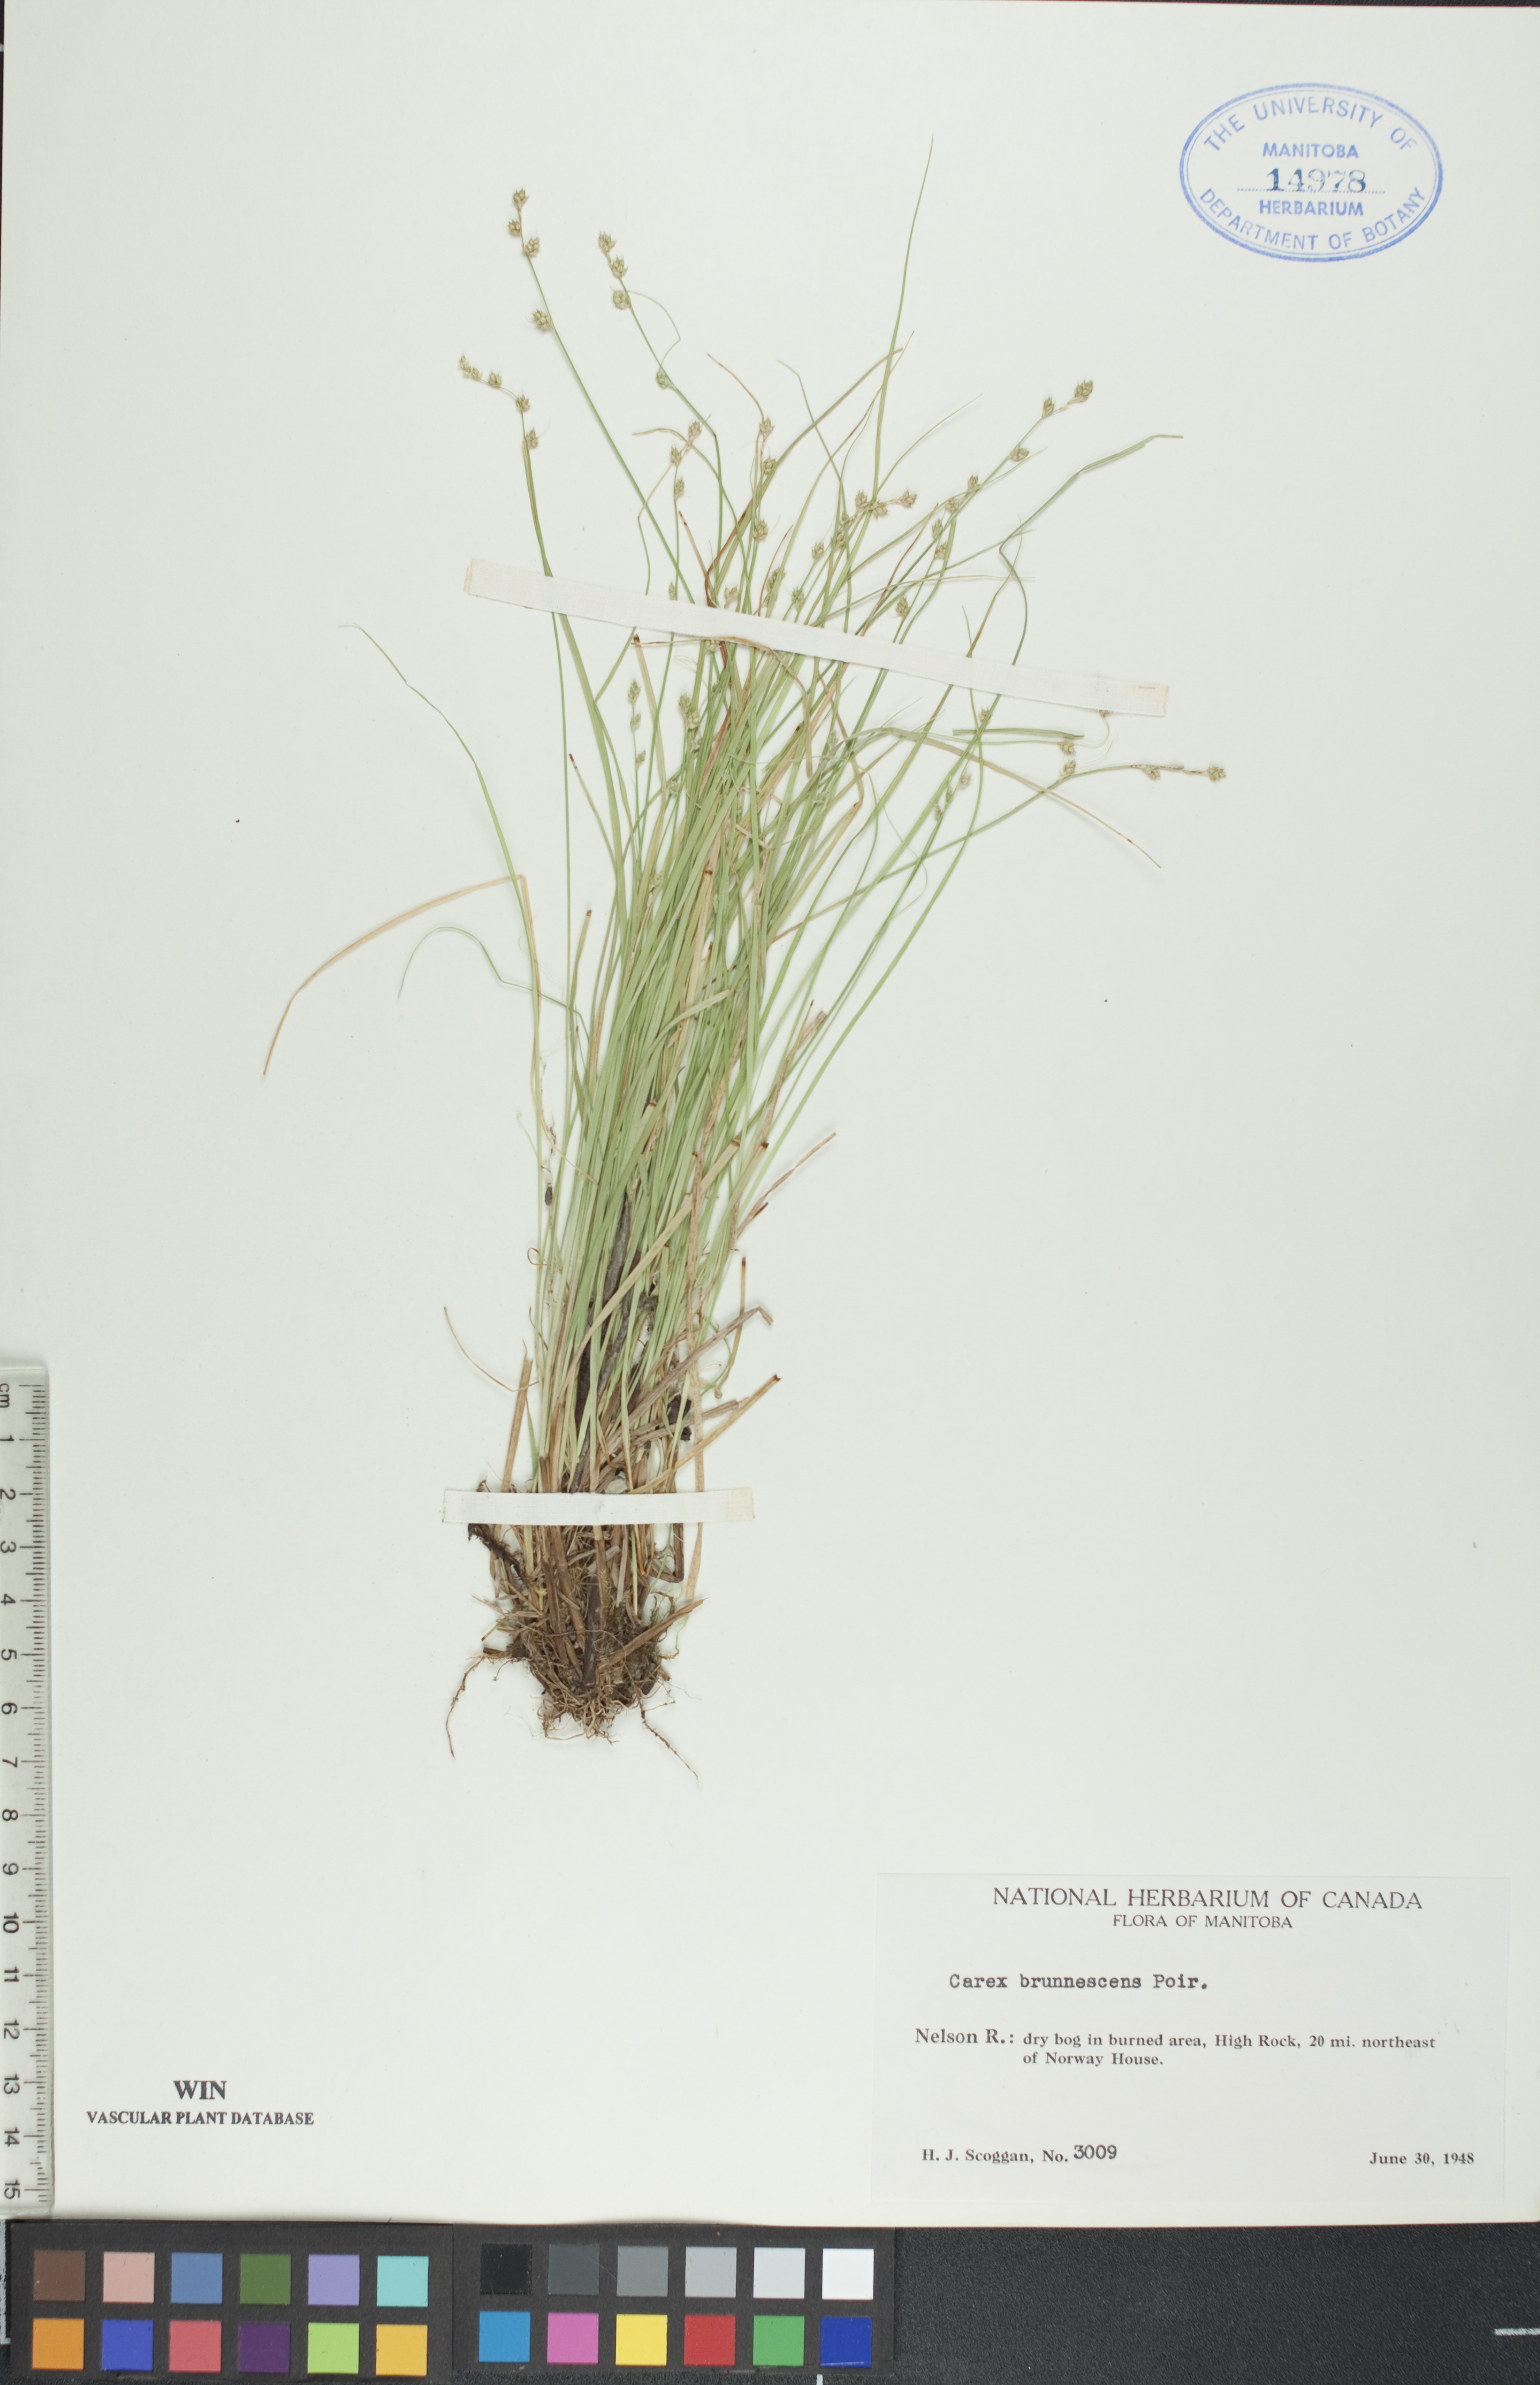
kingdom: Plantae
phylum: Tracheophyta
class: Liliopsida
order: Poales
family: Cyperaceae
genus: Carex
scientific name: Carex brunnescens
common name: Brown sedge
